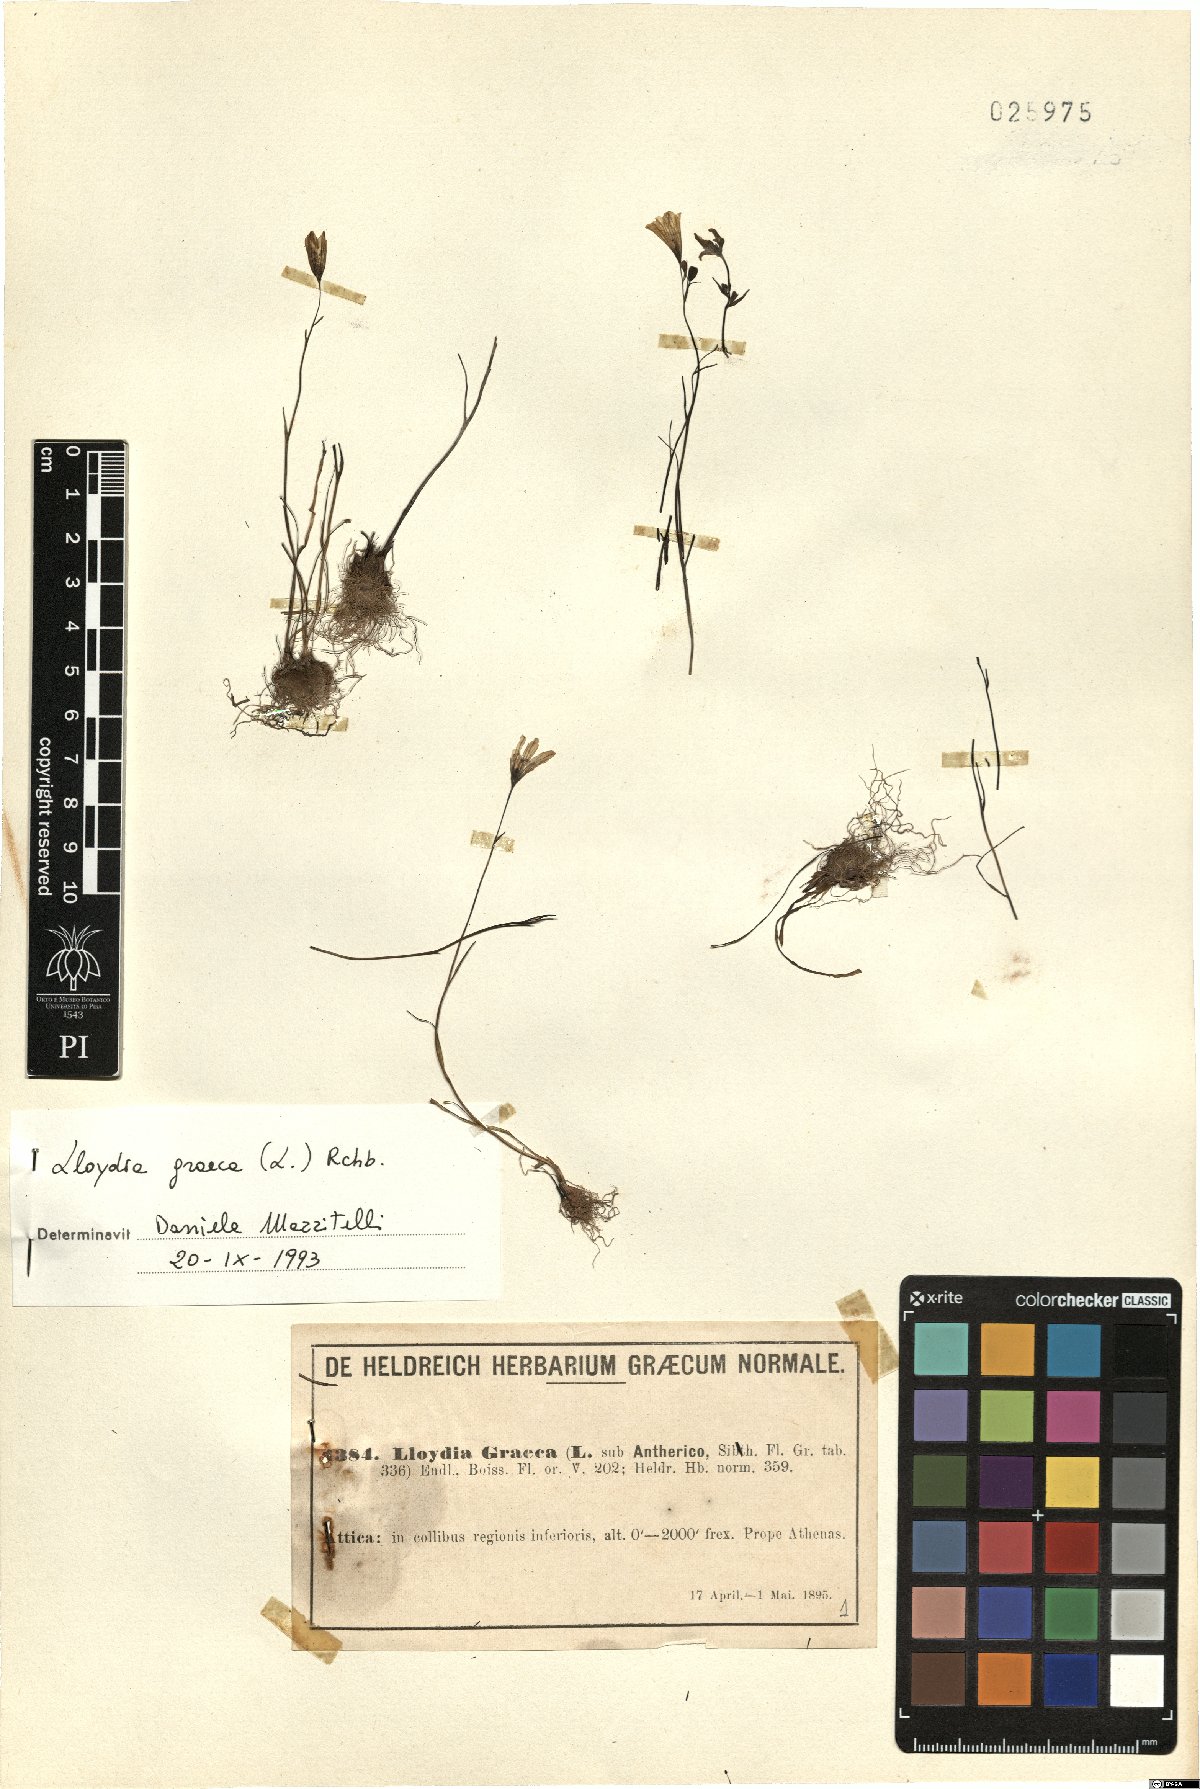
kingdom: Plantae
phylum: Tracheophyta
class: Liliopsida
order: Liliales
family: Liliaceae
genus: Gagea
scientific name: Gagea graeca
